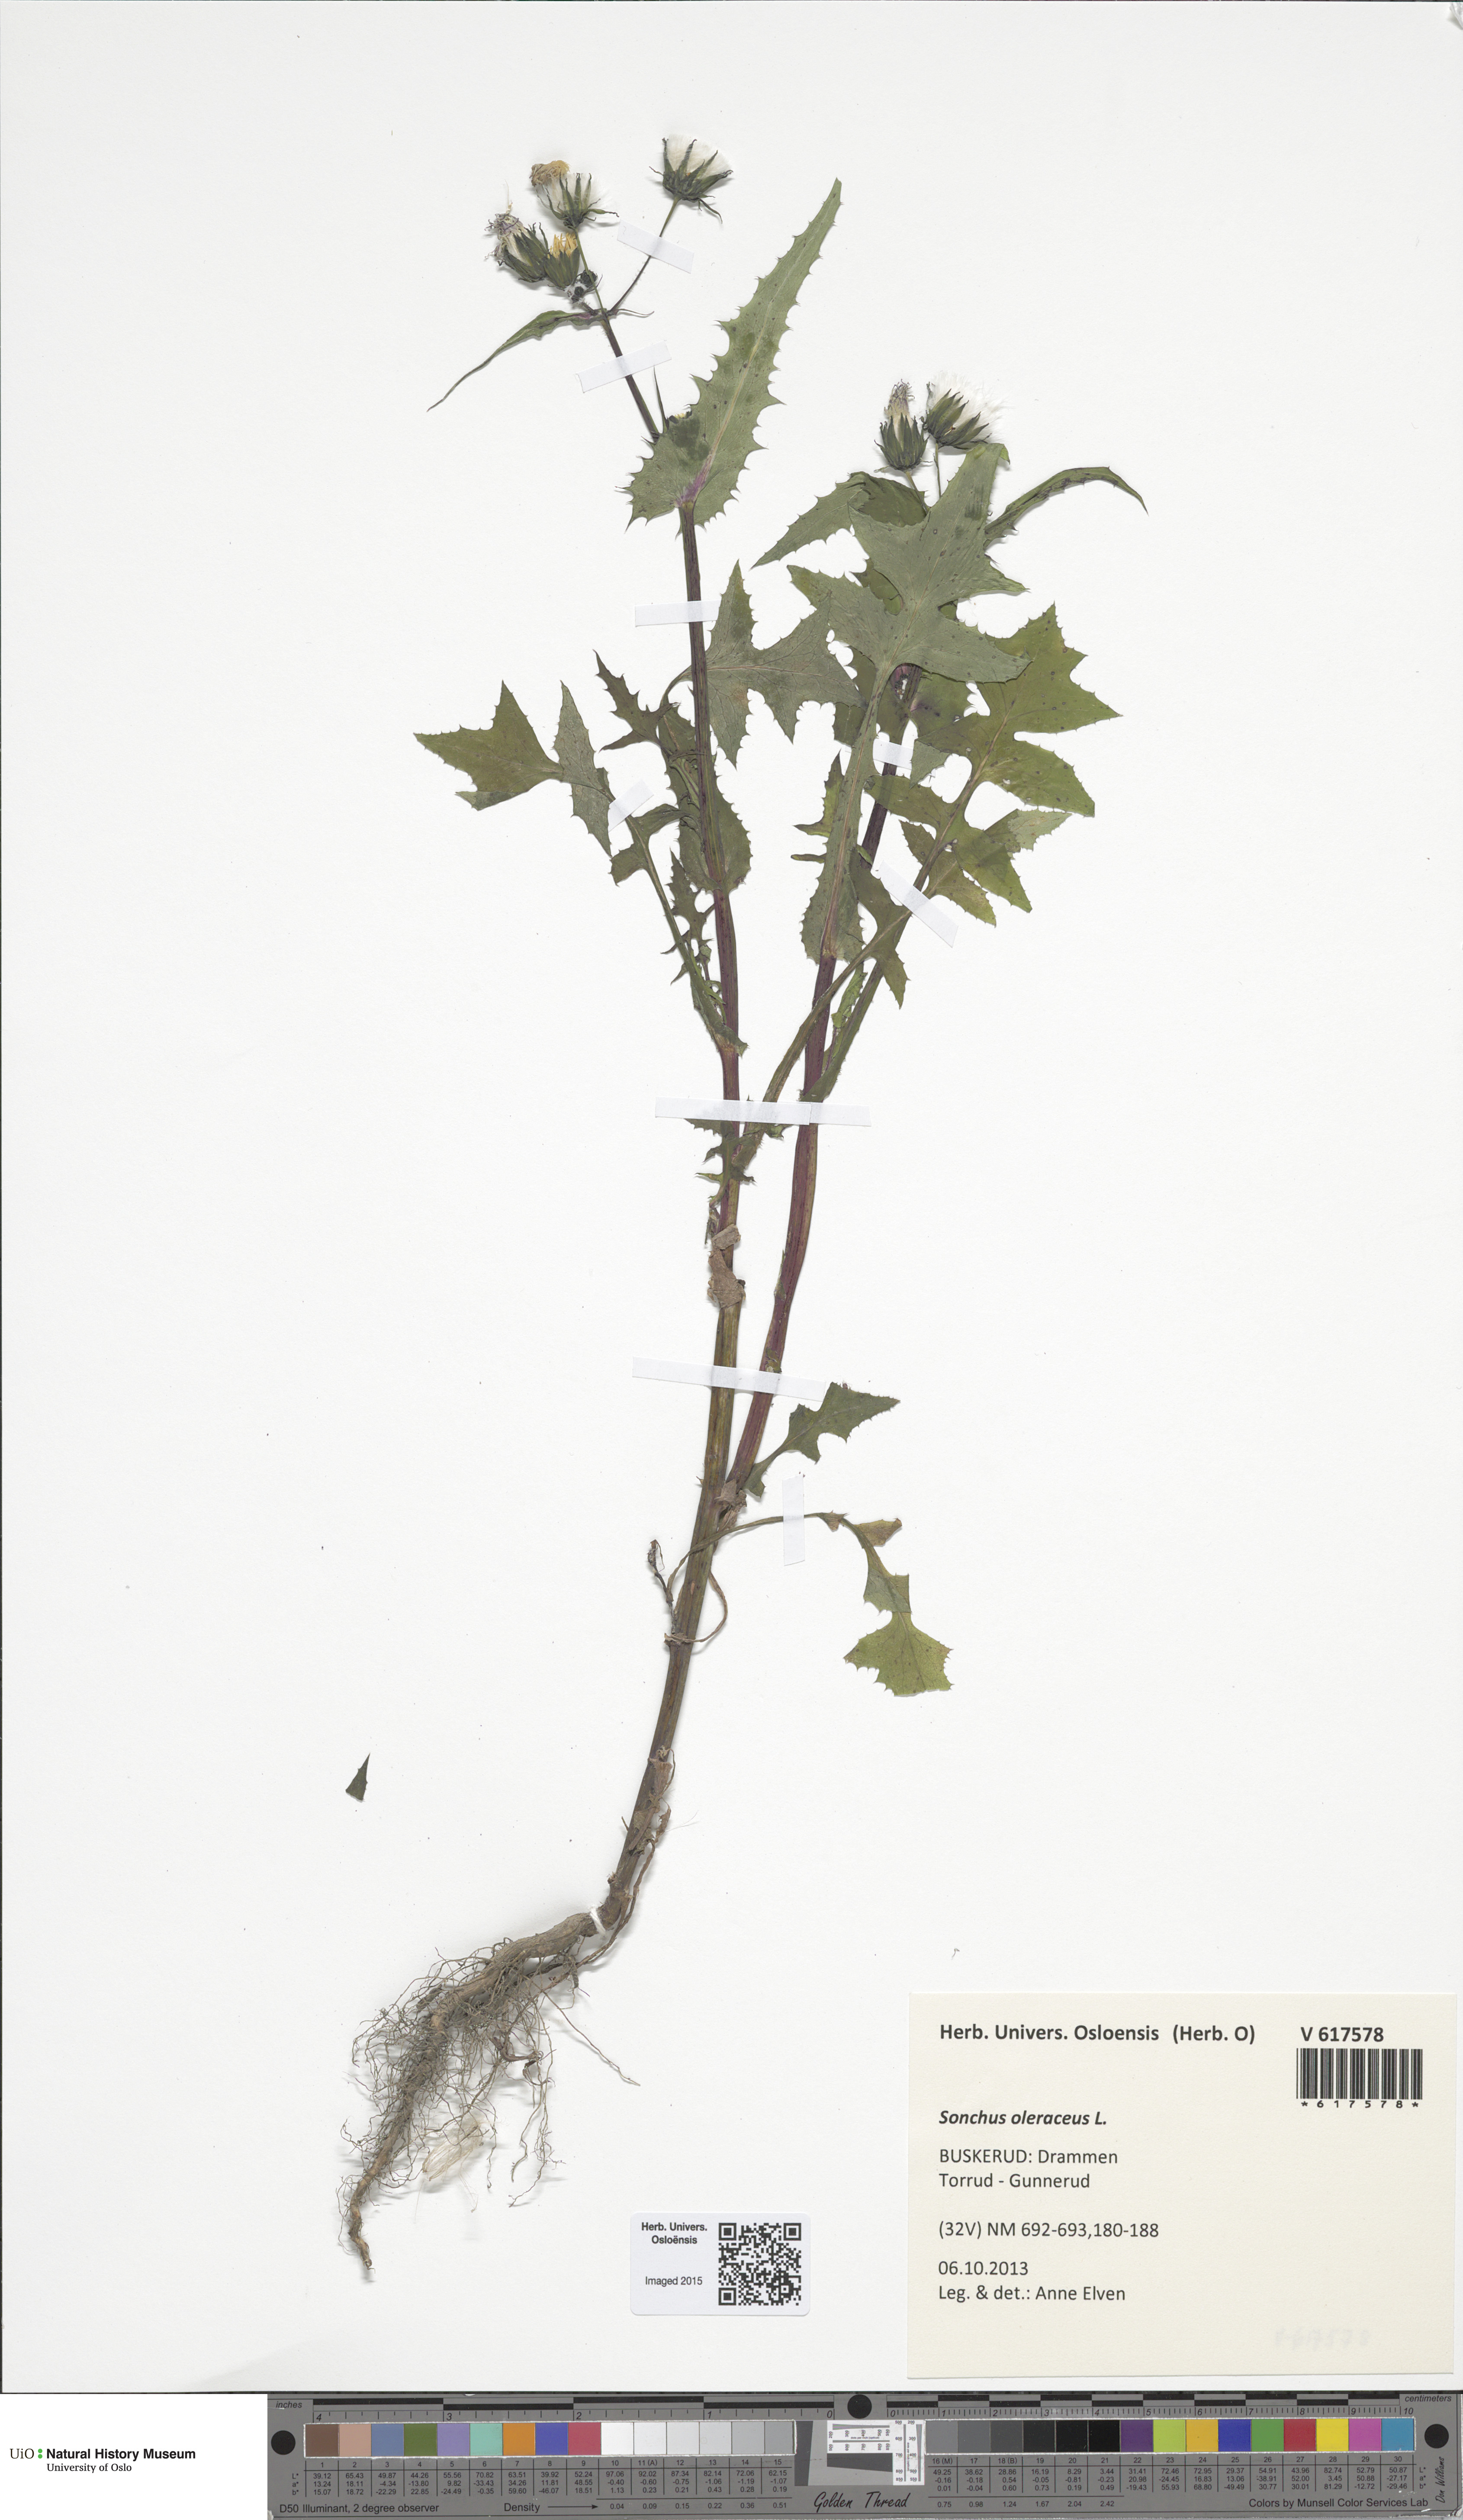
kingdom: Plantae
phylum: Tracheophyta
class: Magnoliopsida
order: Asterales
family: Asteraceae
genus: Sonchus
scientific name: Sonchus oleraceus
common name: Common sowthistle
